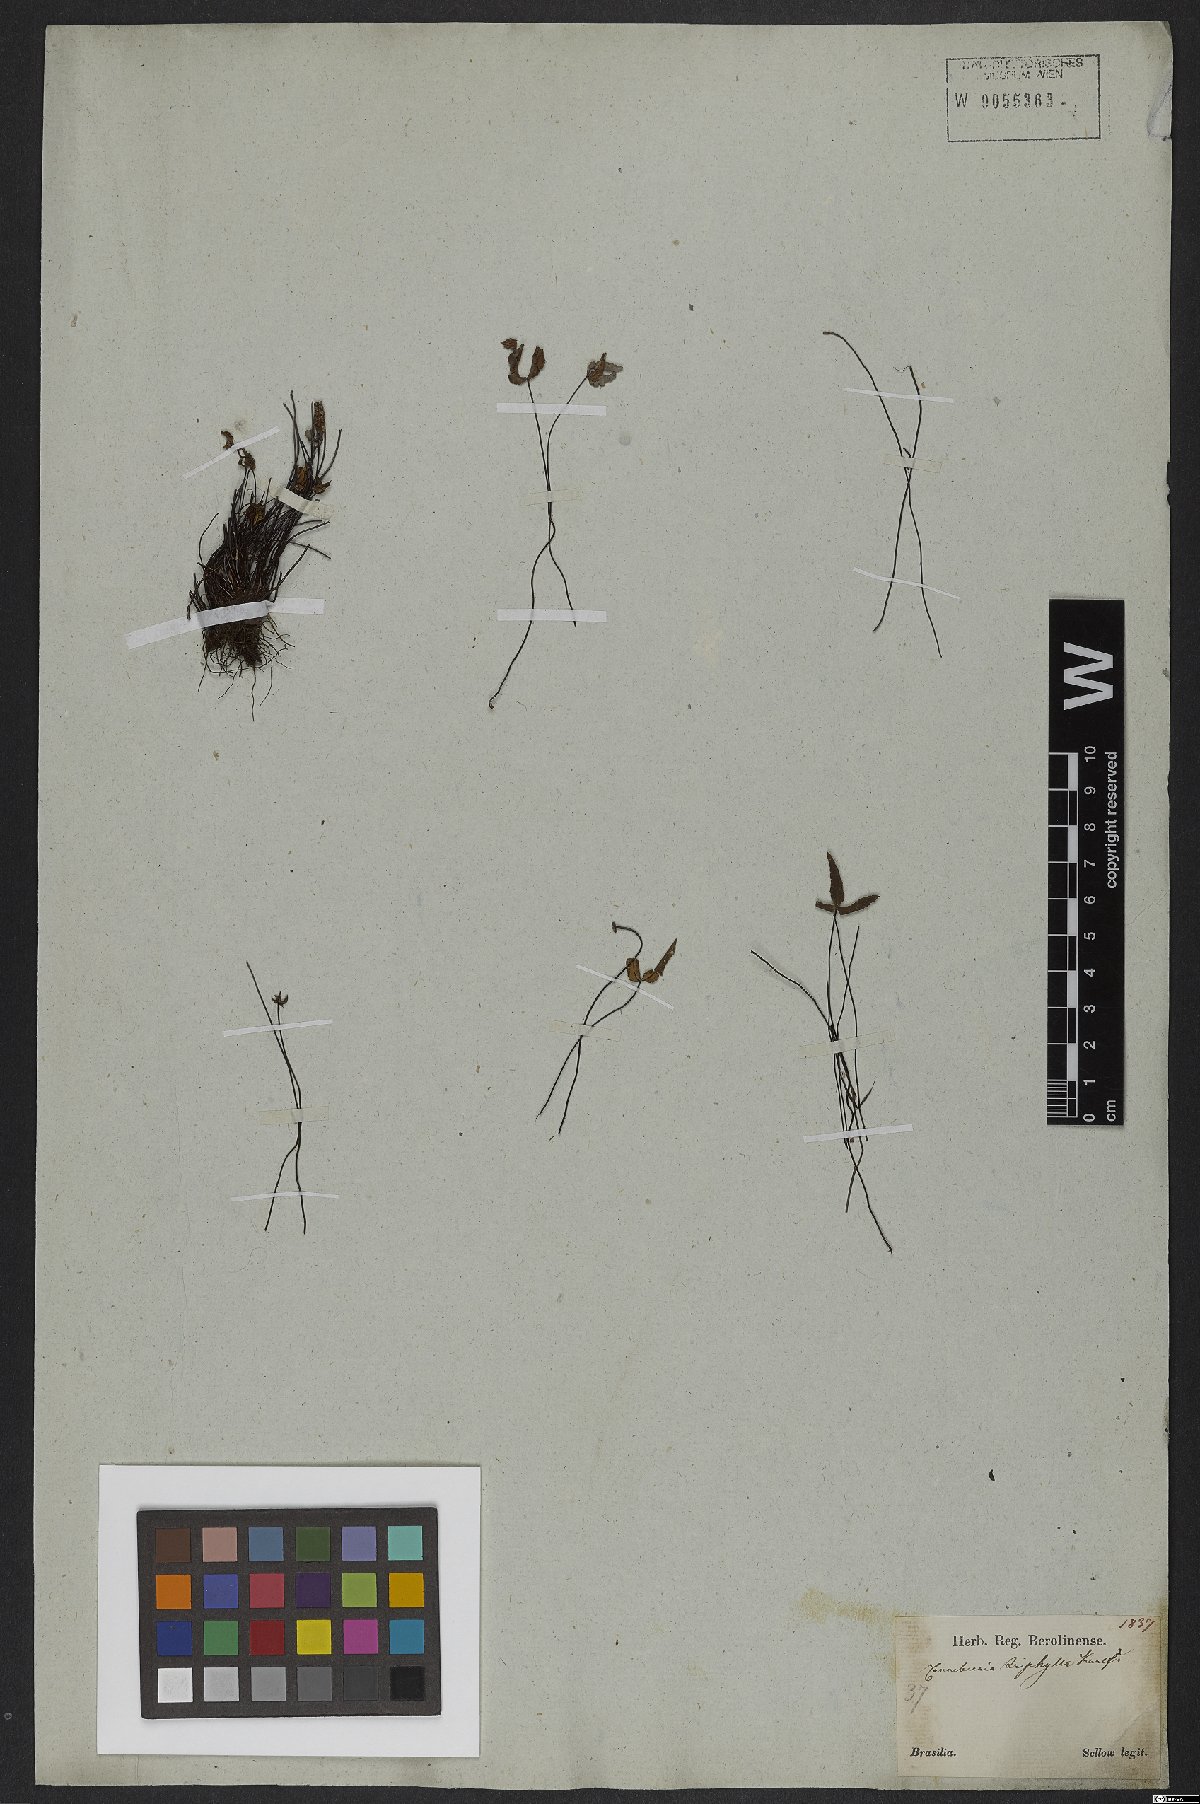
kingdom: Plantae
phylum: Tracheophyta
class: Polypodiopsida
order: Polypodiales
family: Pteridaceae
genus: Doryopteris
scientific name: Doryopteris triphylla
